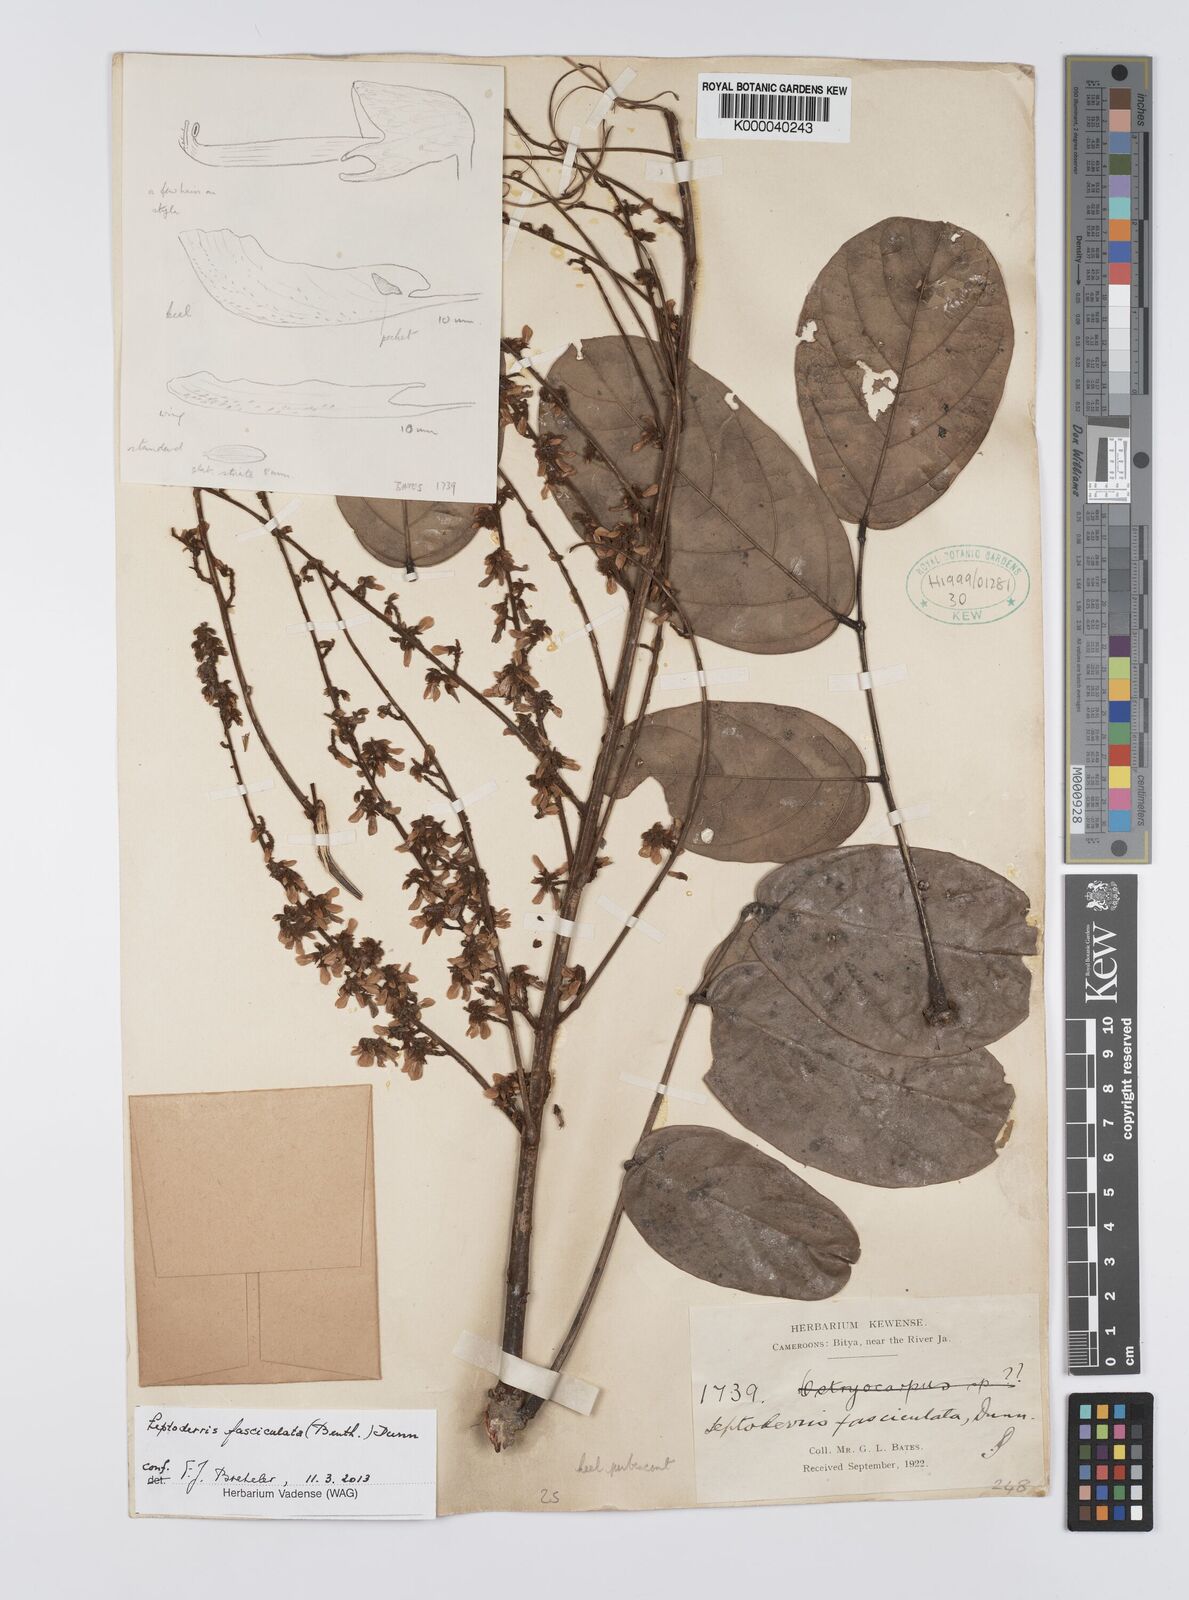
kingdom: Plantae
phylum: Tracheophyta
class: Magnoliopsida
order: Fabales
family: Fabaceae
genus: Leptoderris
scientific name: Leptoderris fasciculata
